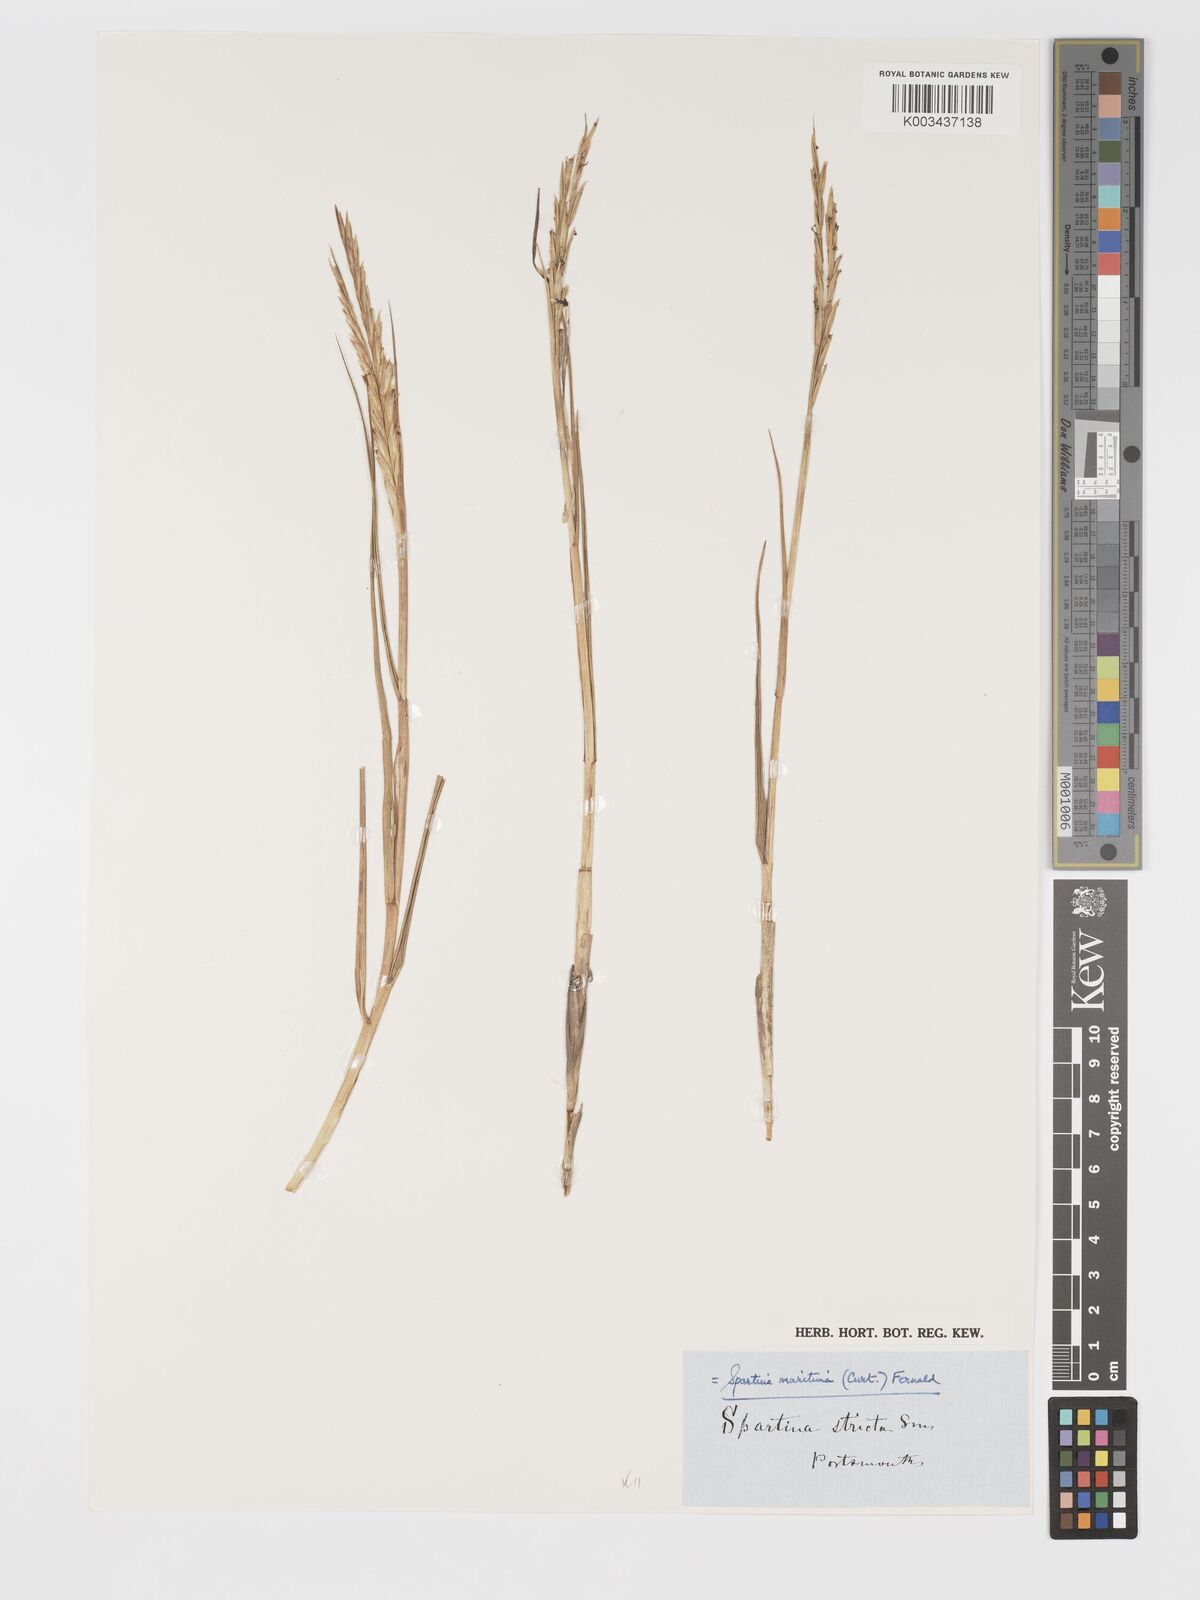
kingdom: Plantae
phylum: Tracheophyta
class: Liliopsida
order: Poales
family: Poaceae
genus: Sporobolus
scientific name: Sporobolus maritimus
